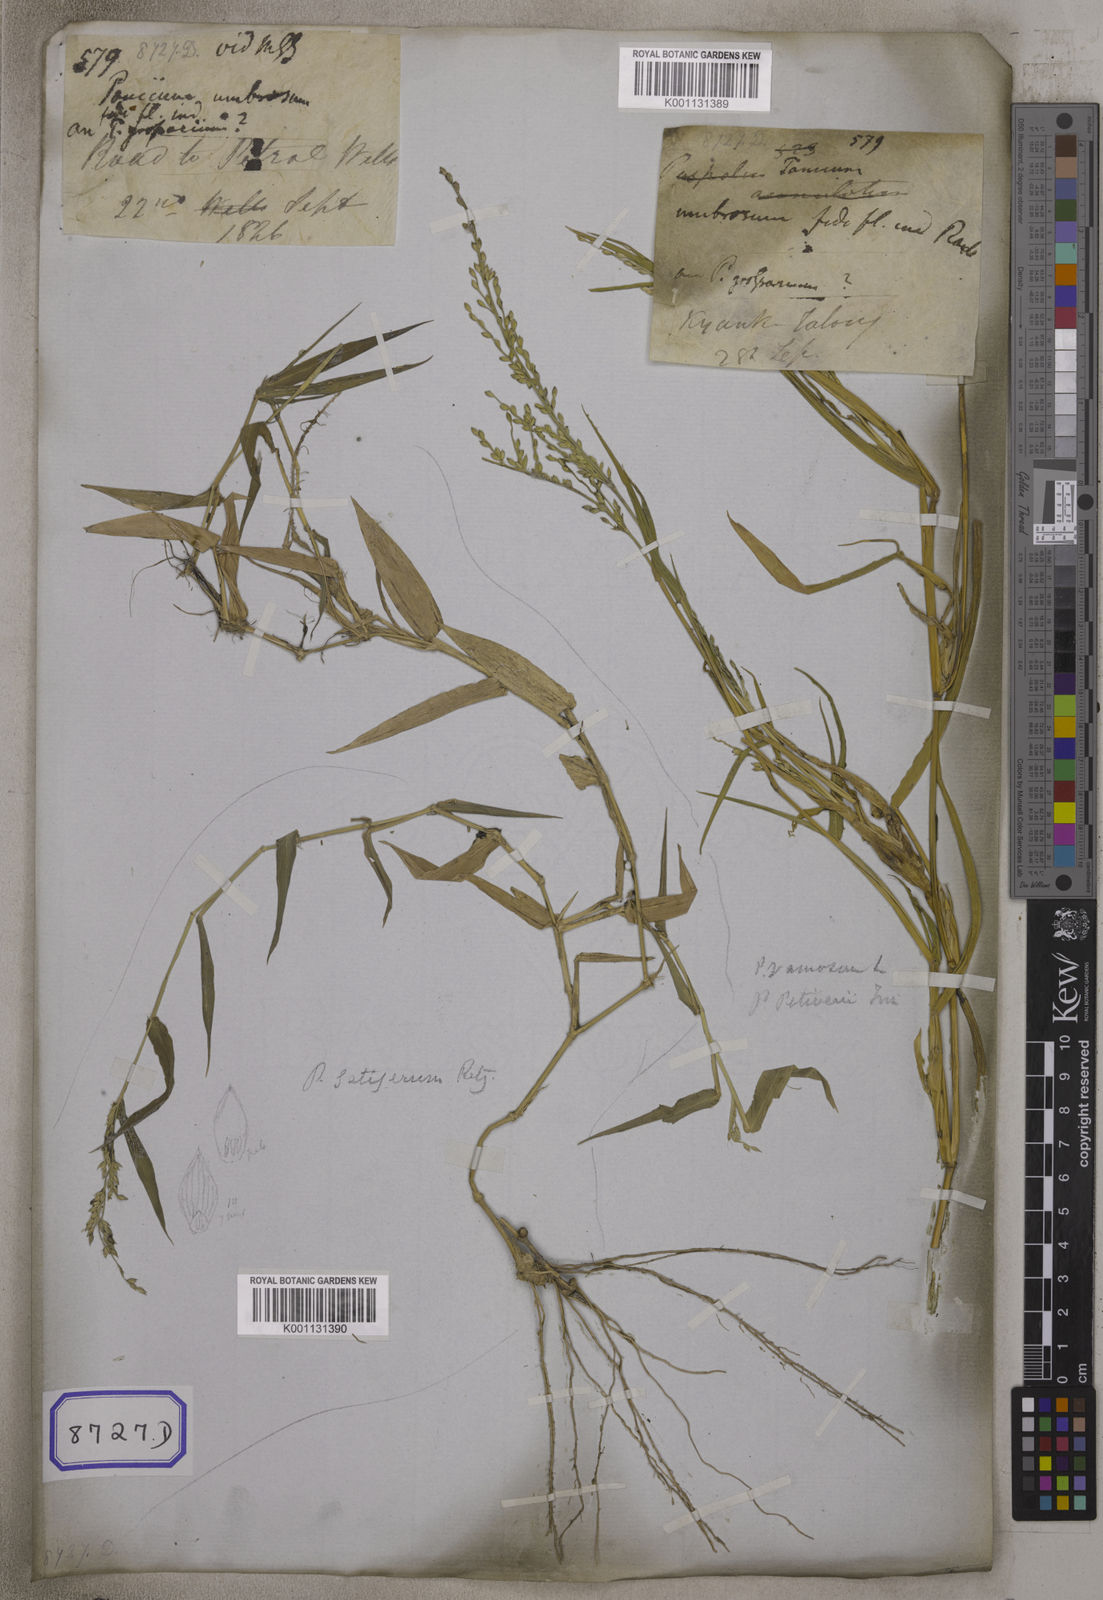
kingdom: Plantae
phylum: Tracheophyta
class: Liliopsida
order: Poales
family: Poaceae
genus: Panicum
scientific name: Panicum
